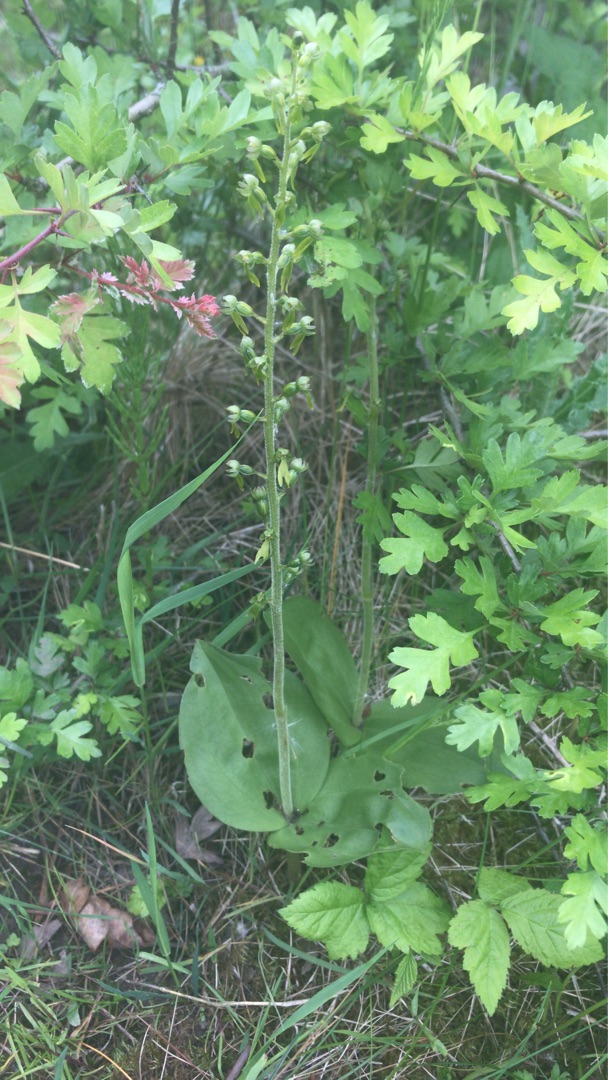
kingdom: Plantae
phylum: Tracheophyta
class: Liliopsida
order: Asparagales
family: Orchidaceae
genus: Neottia
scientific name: Neottia ovata
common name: Ægbladet fliglæbe
